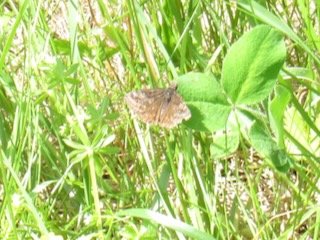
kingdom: Animalia
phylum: Arthropoda
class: Insecta
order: Lepidoptera
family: Hesperiidae
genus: Gesta
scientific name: Gesta
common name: Wild Indigo Duskywing
